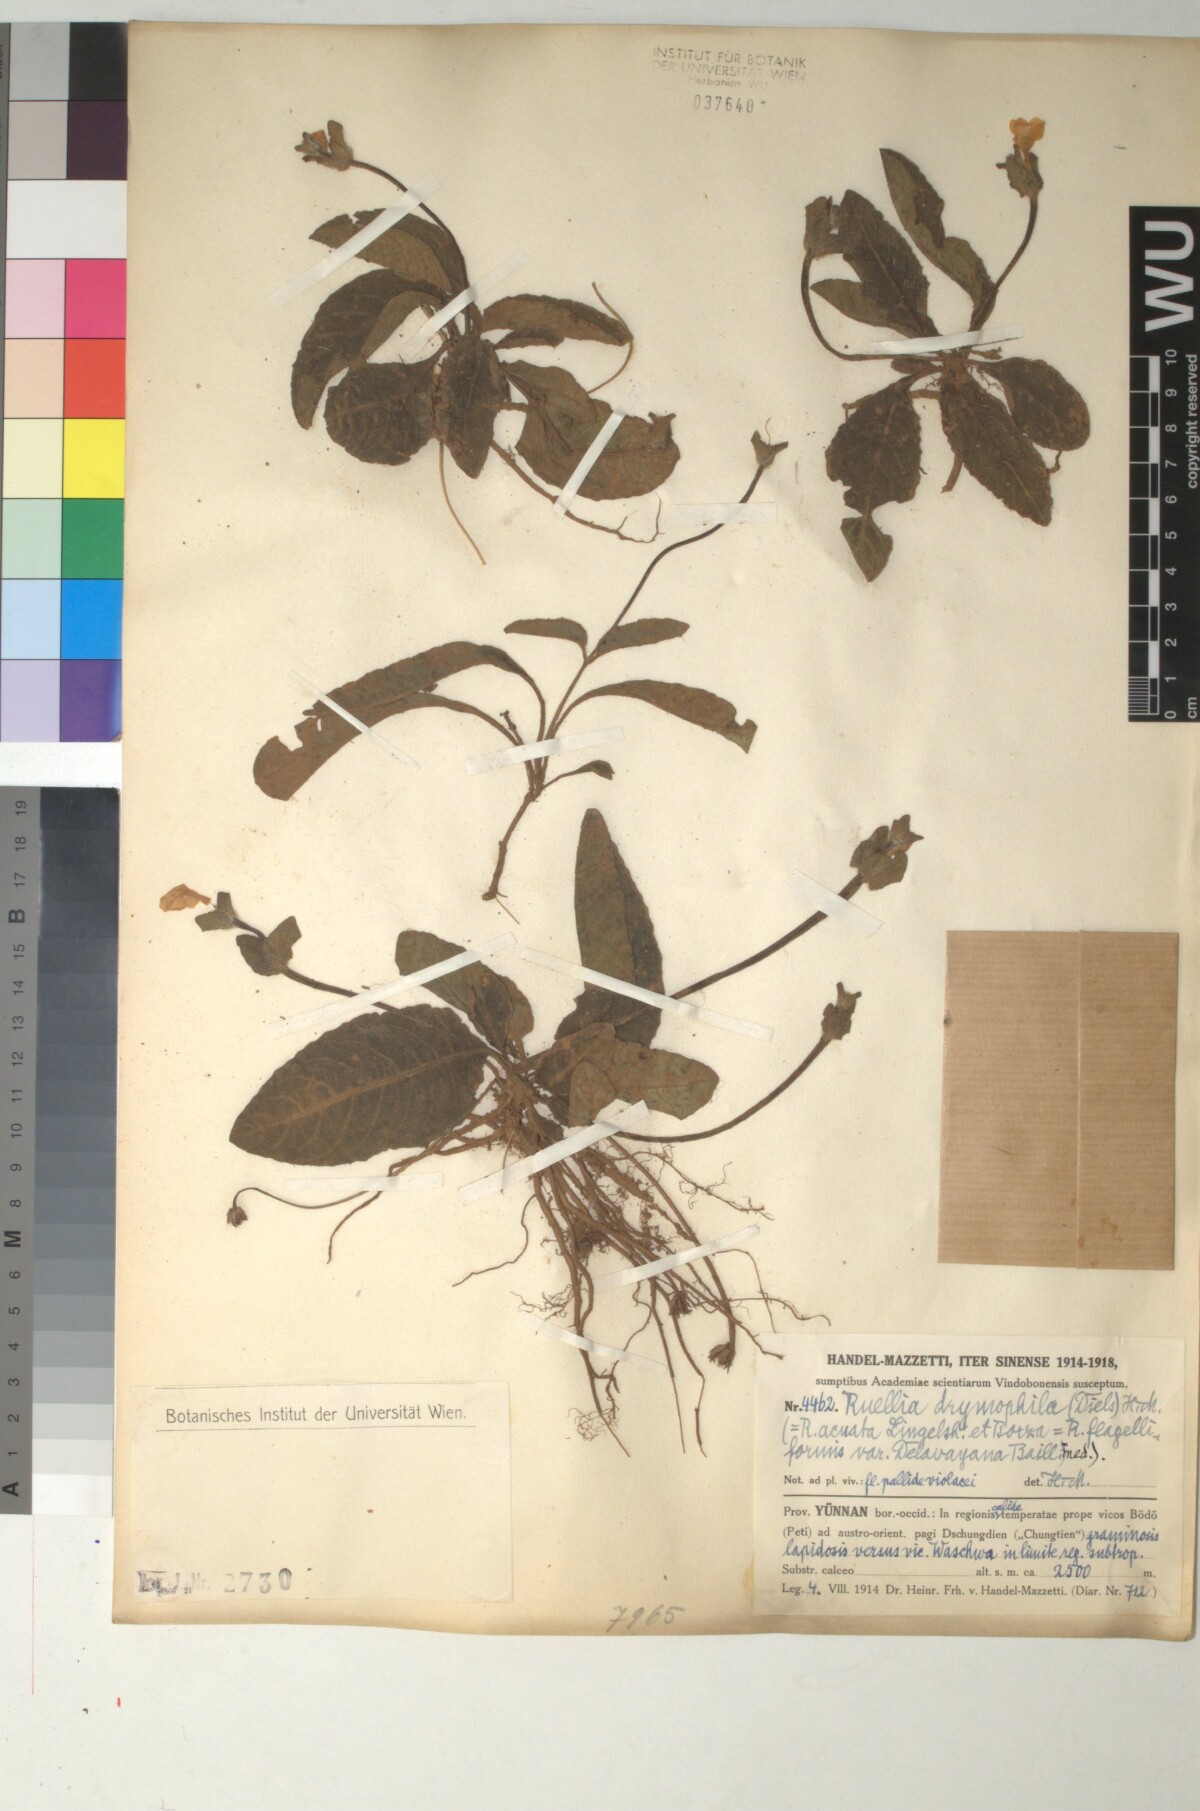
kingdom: Plantae
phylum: Tracheophyta
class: Magnoliopsida
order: Lamiales
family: Acanthaceae
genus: Pararuellia
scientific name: Pararuellia
